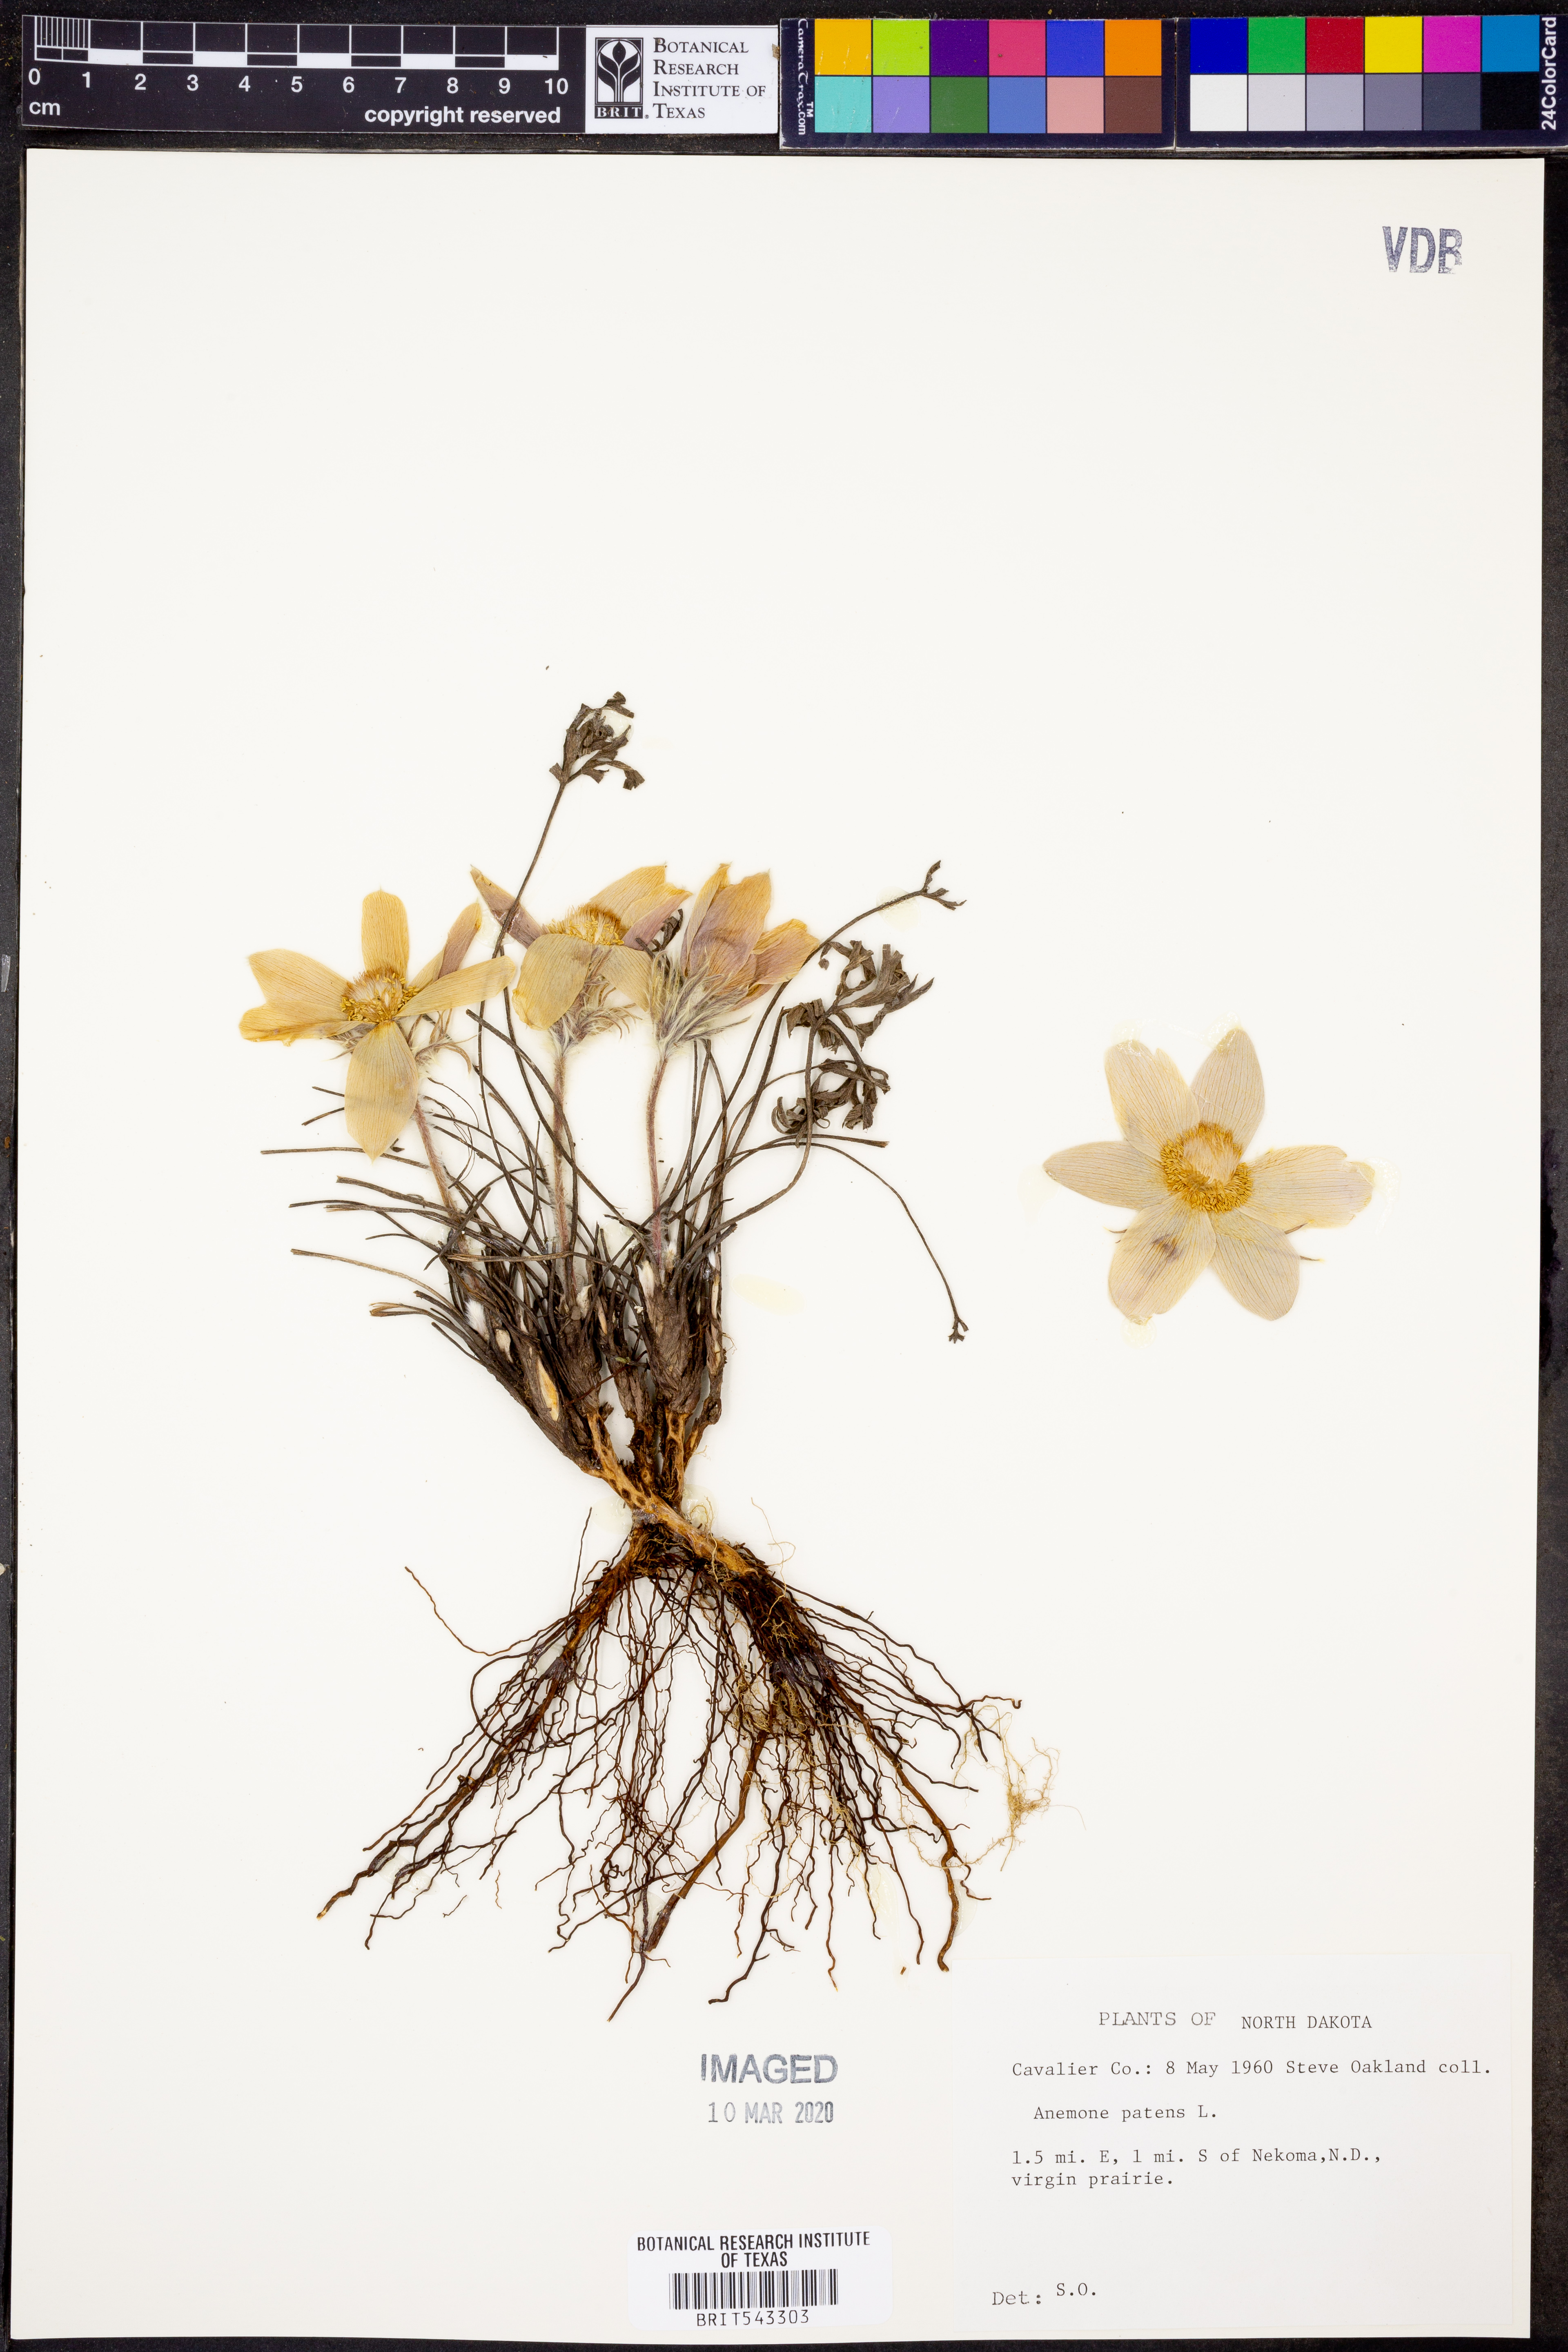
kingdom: Plantae
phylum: Tracheophyta
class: Magnoliopsida
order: Ranunculales
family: Ranunculaceae
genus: Pulsatilla
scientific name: Pulsatilla patens
